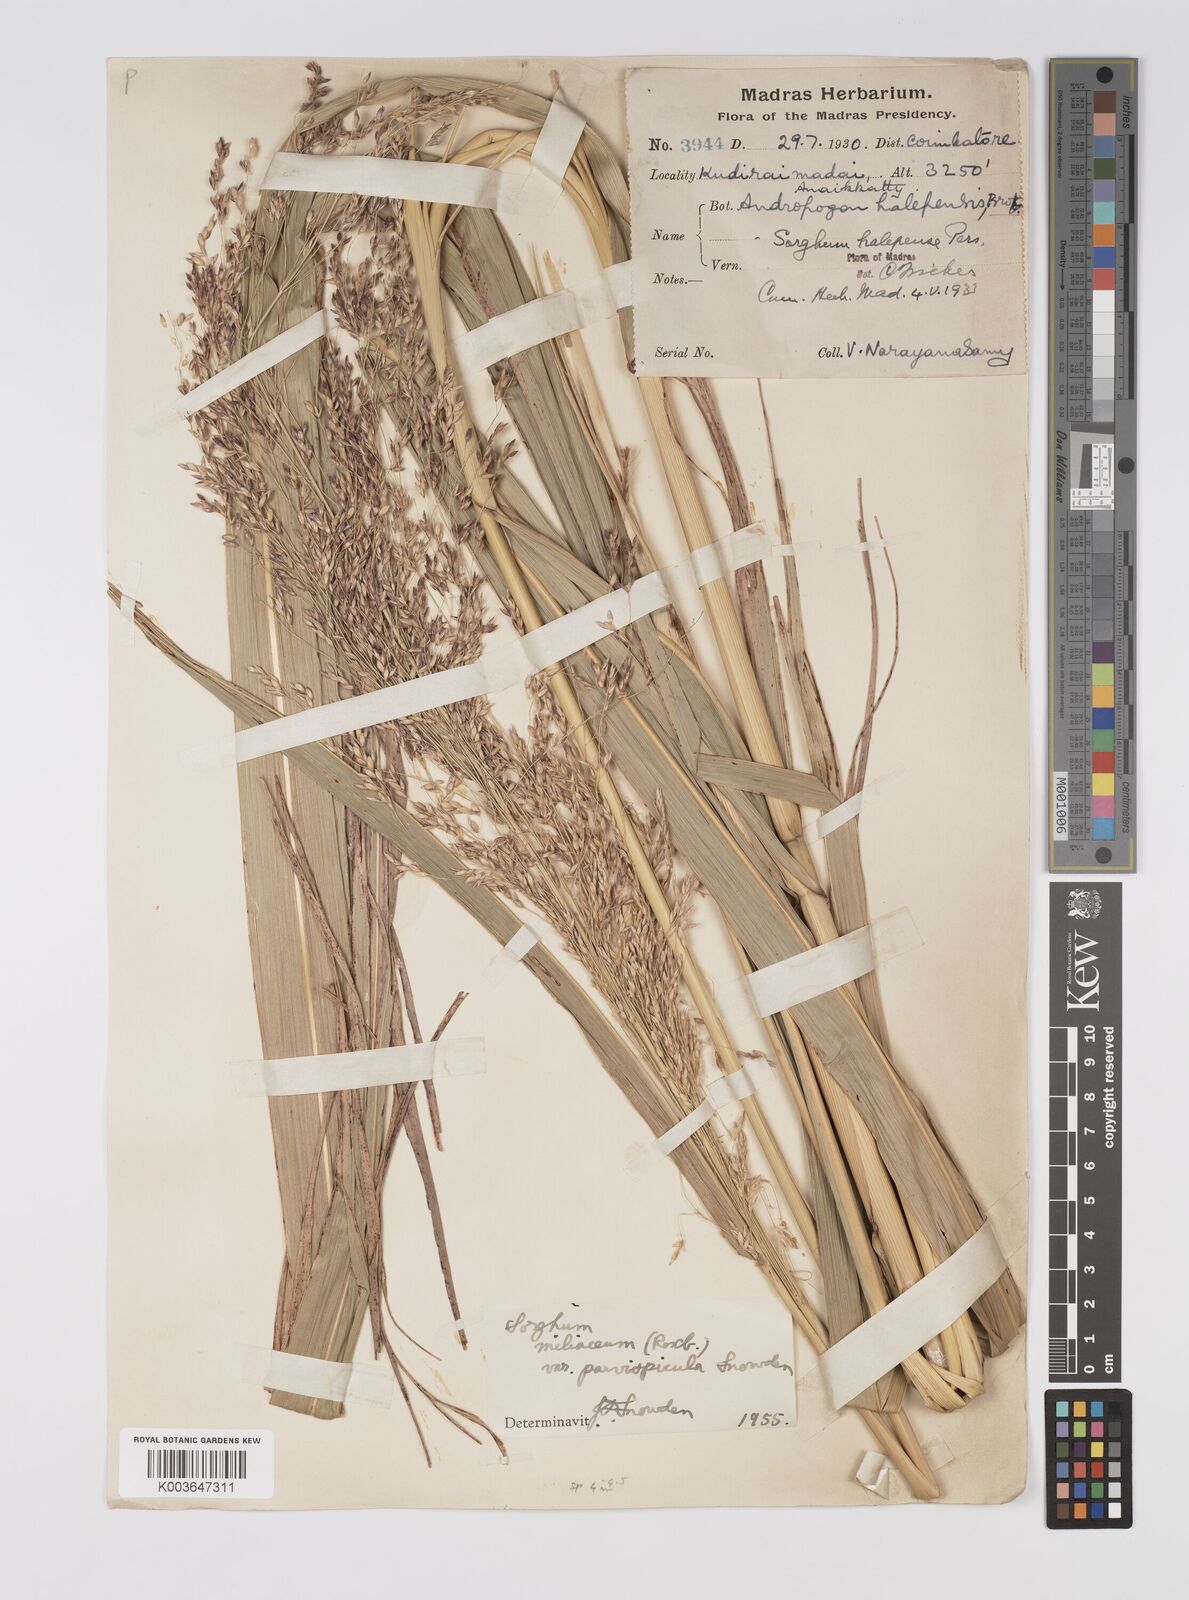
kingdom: Plantae
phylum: Tracheophyta
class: Liliopsida
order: Poales
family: Poaceae
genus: Sorghum
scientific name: Sorghum halepense
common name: Johnson-grass
